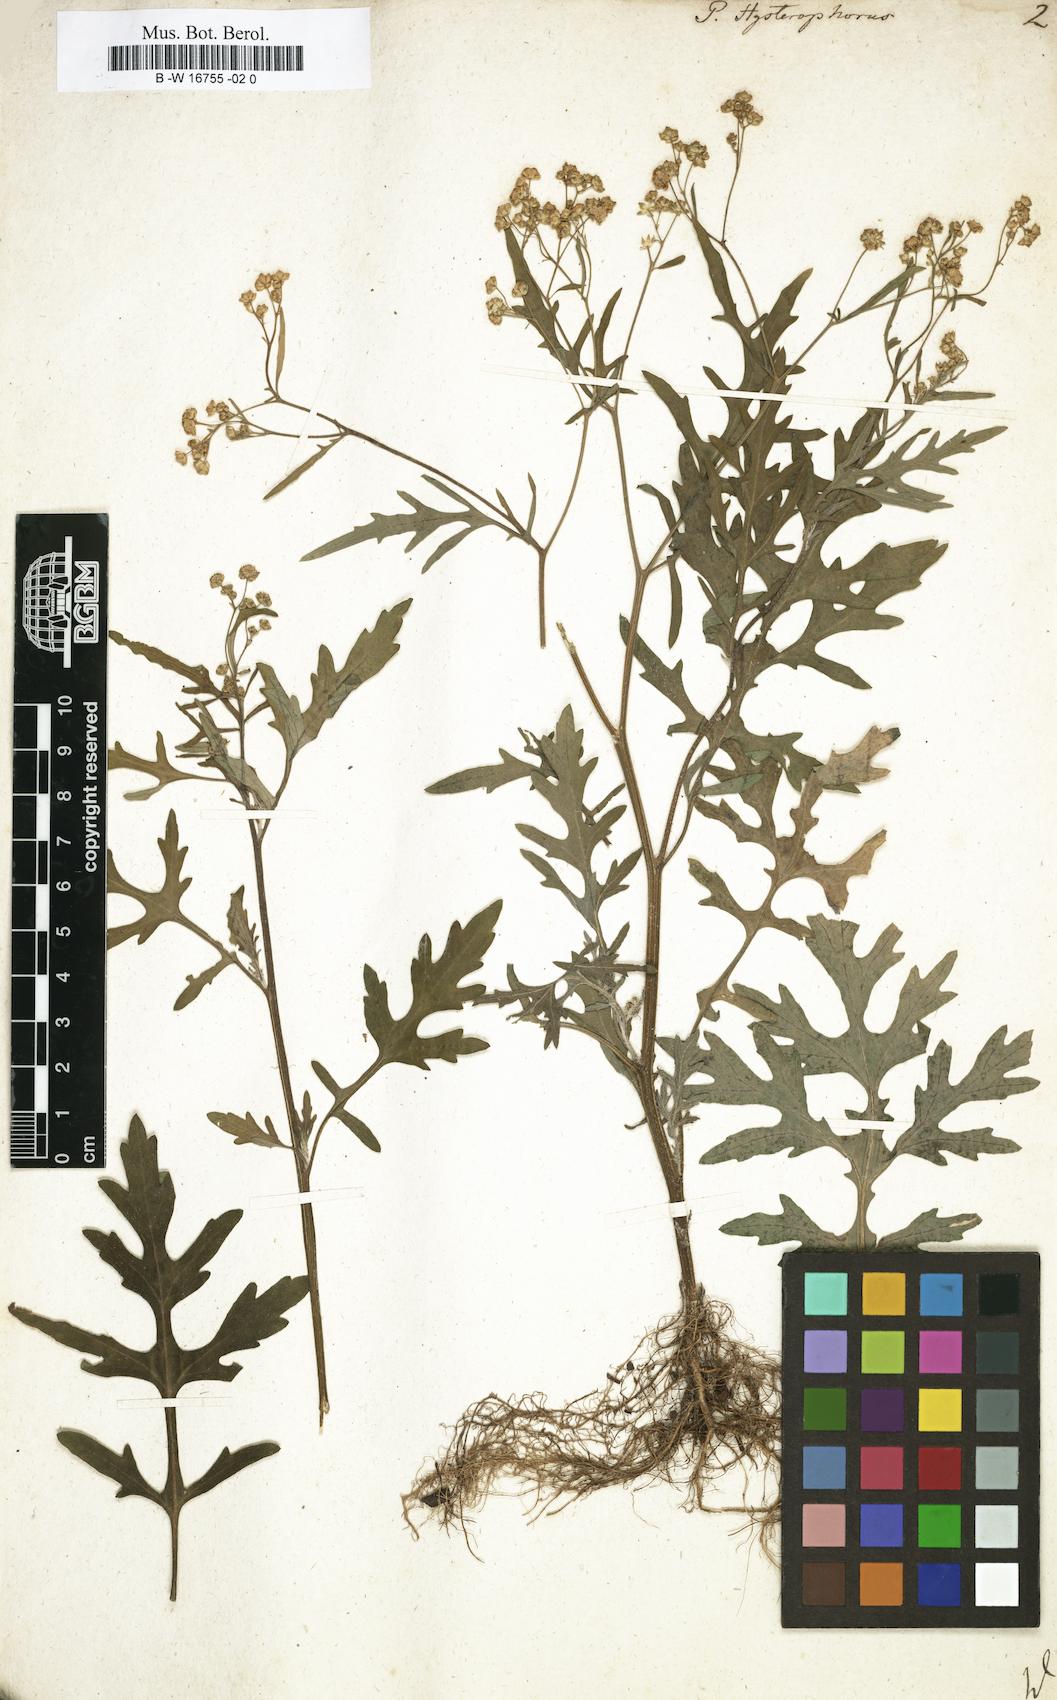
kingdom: Plantae
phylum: Tracheophyta
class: Magnoliopsida
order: Asterales
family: Asteraceae
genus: Parthenium
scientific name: Parthenium hysterophorus
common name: Santa maria feverfew
